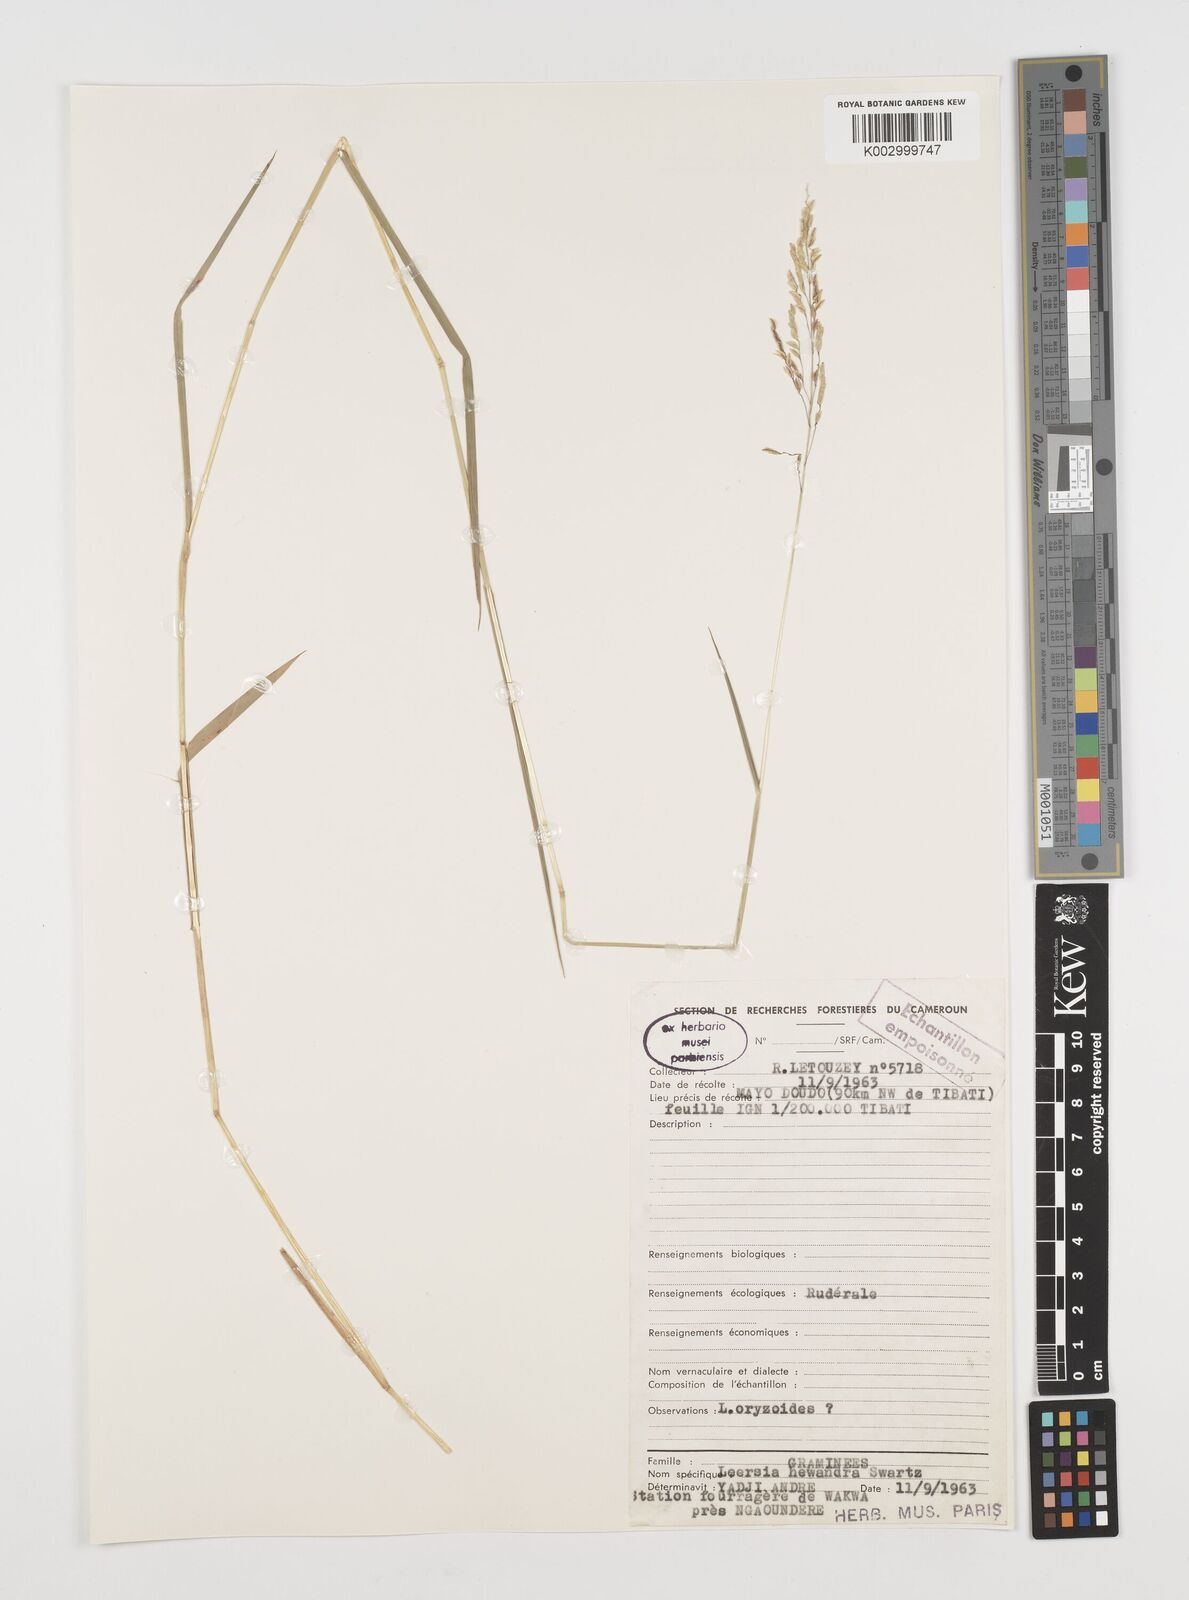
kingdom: Plantae
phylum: Tracheophyta
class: Liliopsida
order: Poales
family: Poaceae
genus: Leersia
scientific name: Leersia hexandra
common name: Southern cut grass
